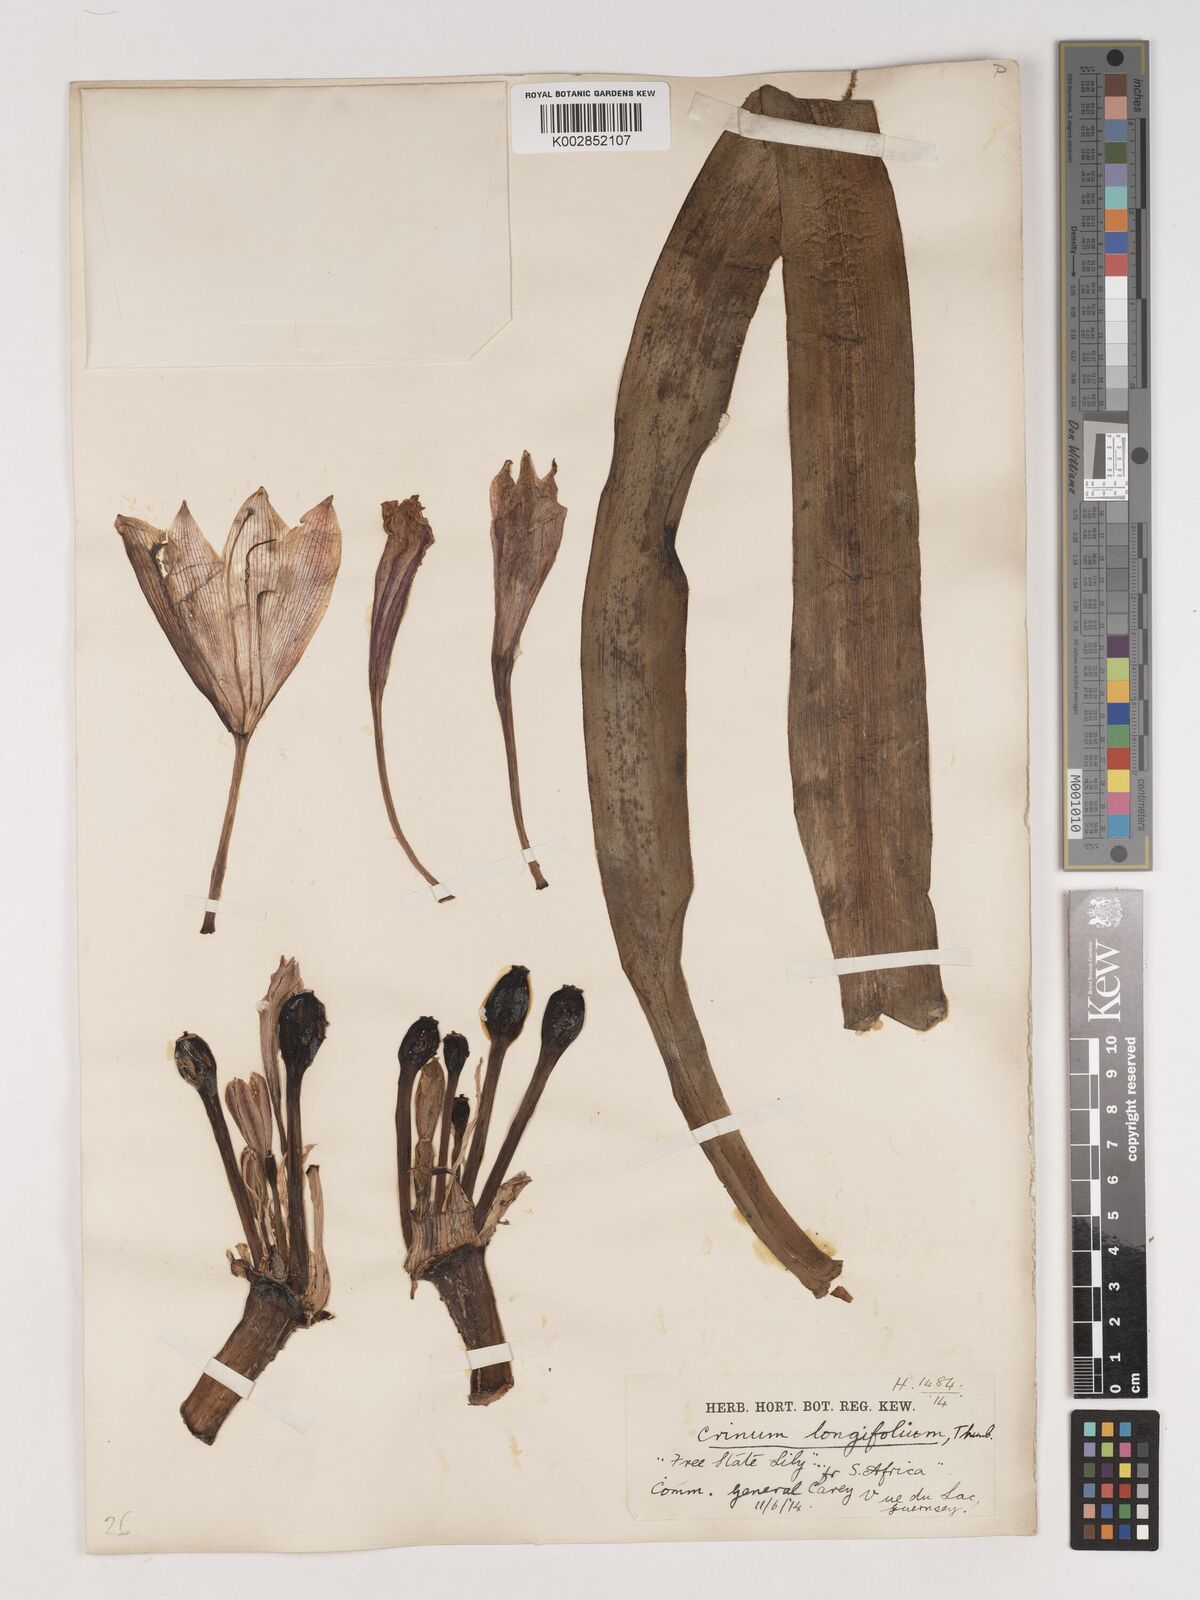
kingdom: Plantae
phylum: Tracheophyta
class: Liliopsida
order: Asparagales
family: Amaryllidaceae
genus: Crinum
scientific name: Crinum bulbispermum
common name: Hardy swamplily
